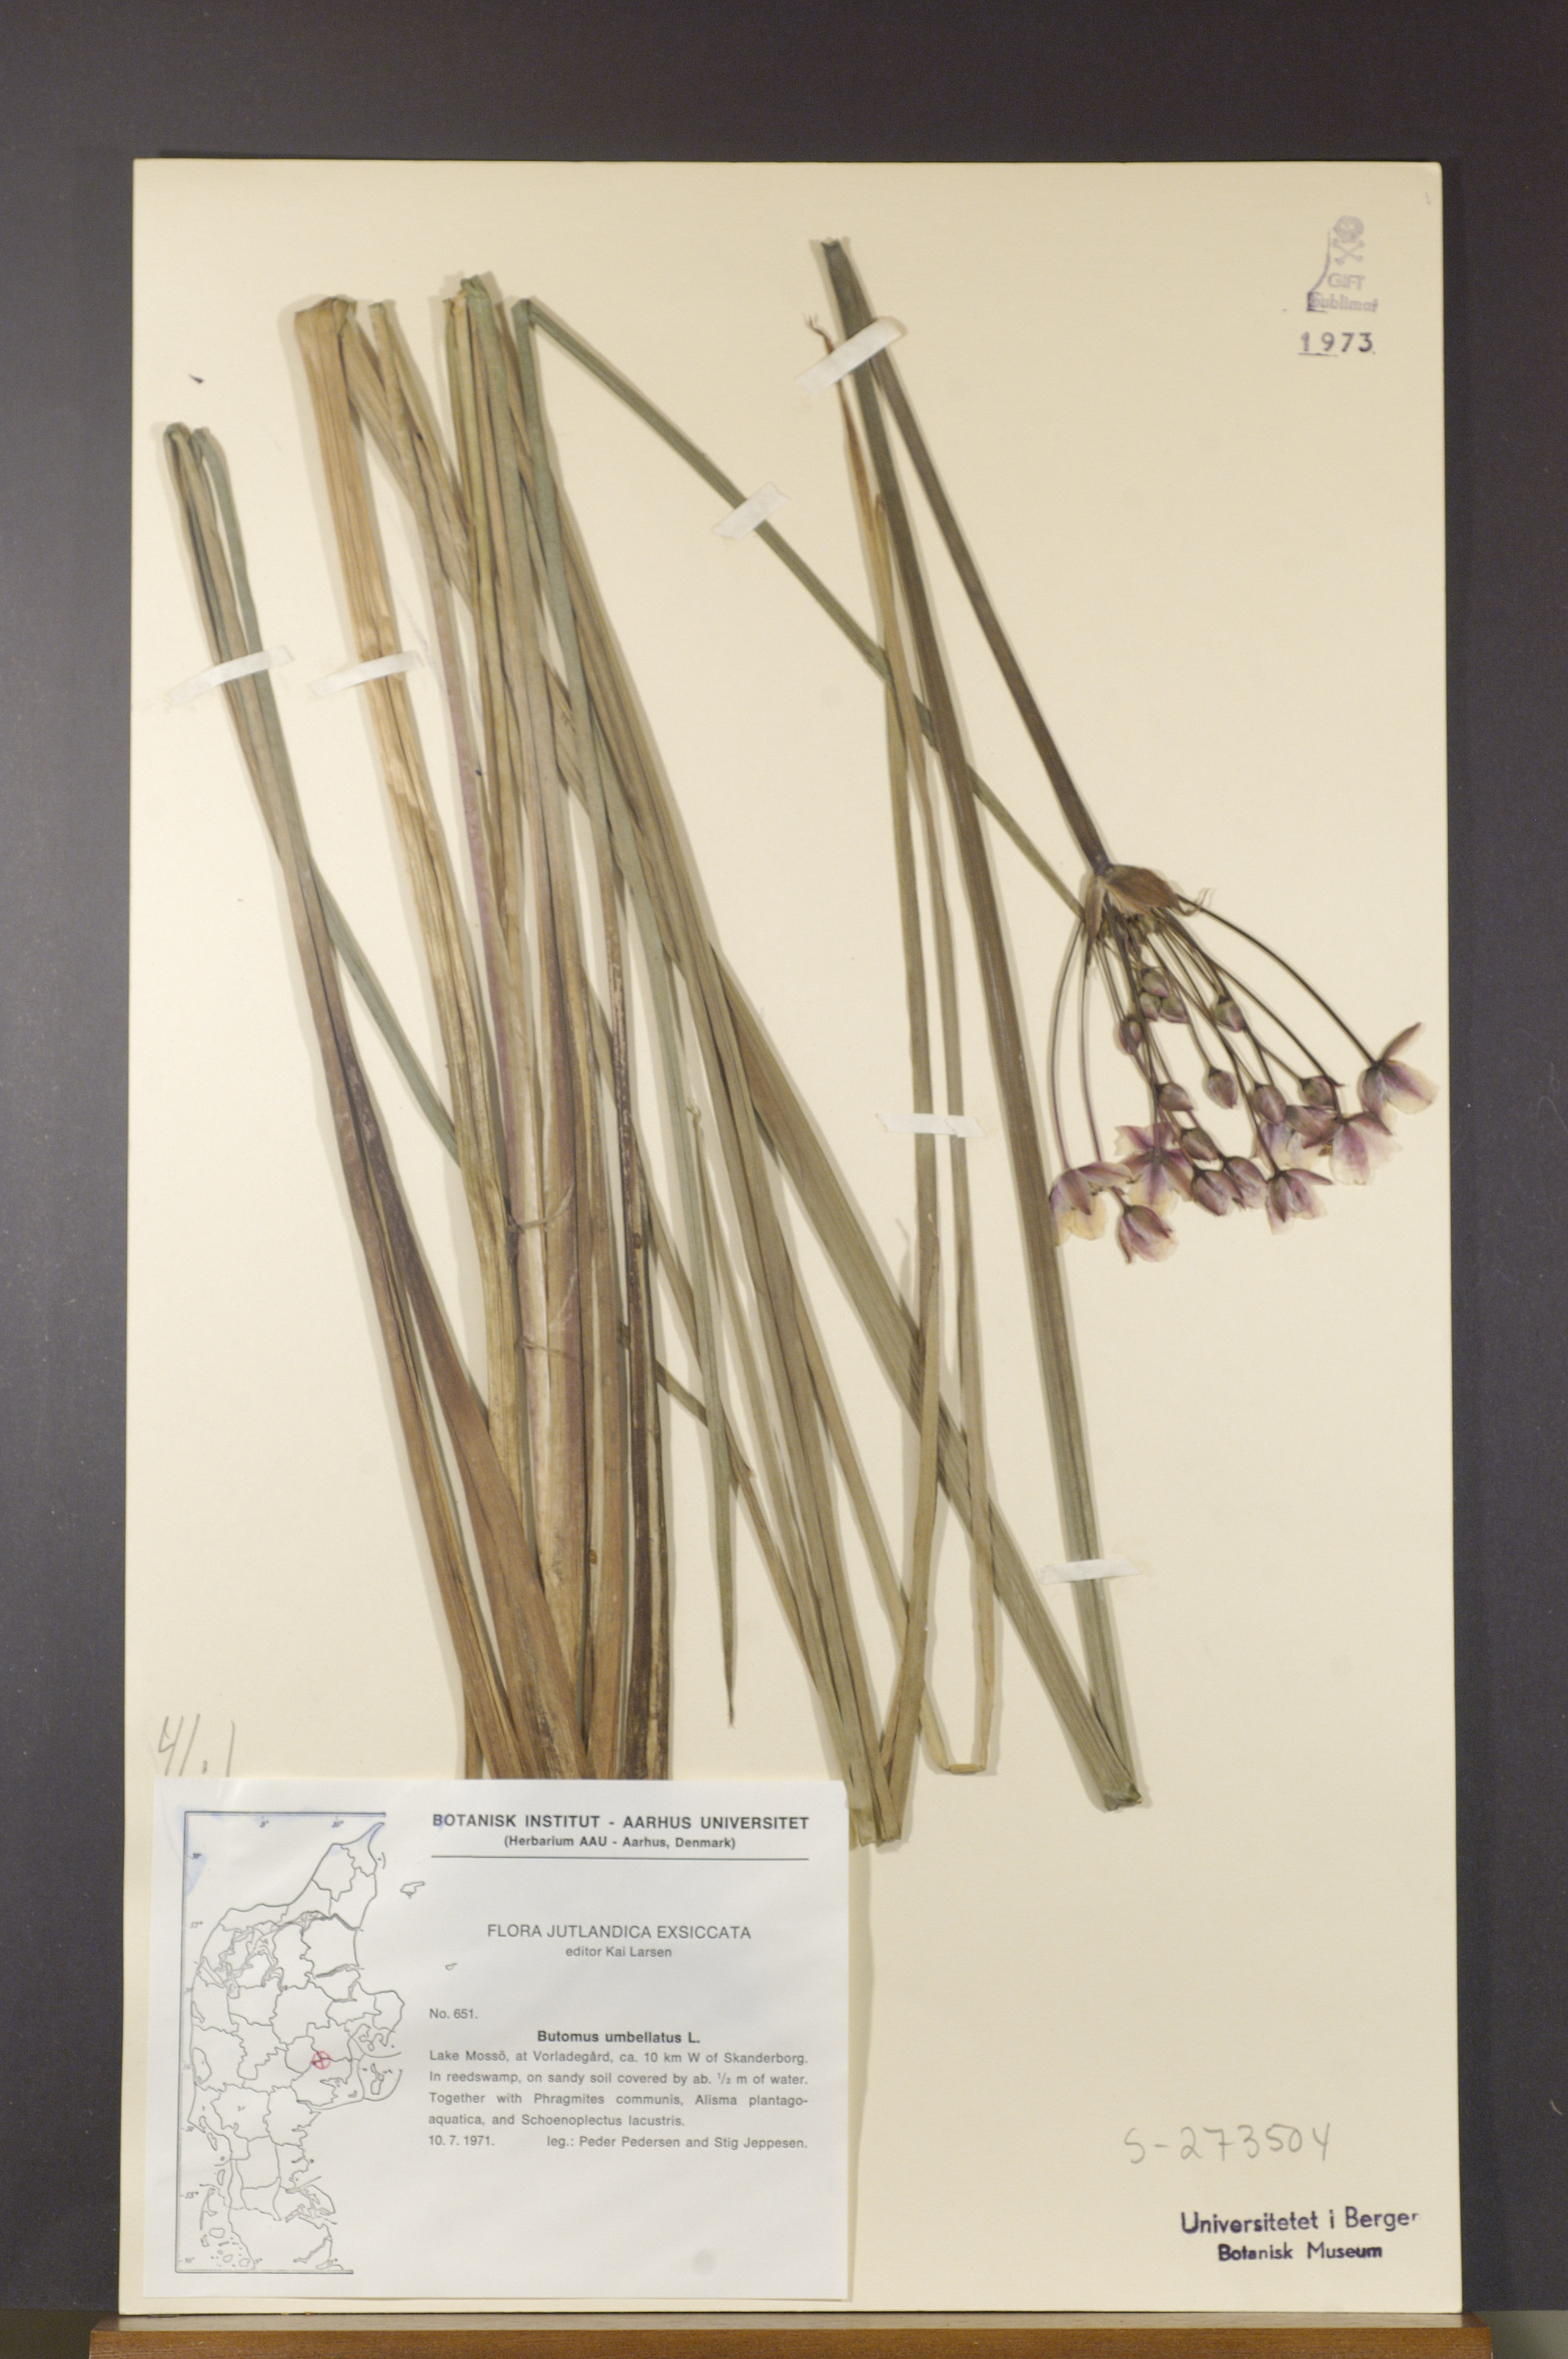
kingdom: Plantae
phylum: Tracheophyta
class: Liliopsida
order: Alismatales
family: Butomaceae
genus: Butomus
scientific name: Butomus umbellatus
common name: Flowering-rush
